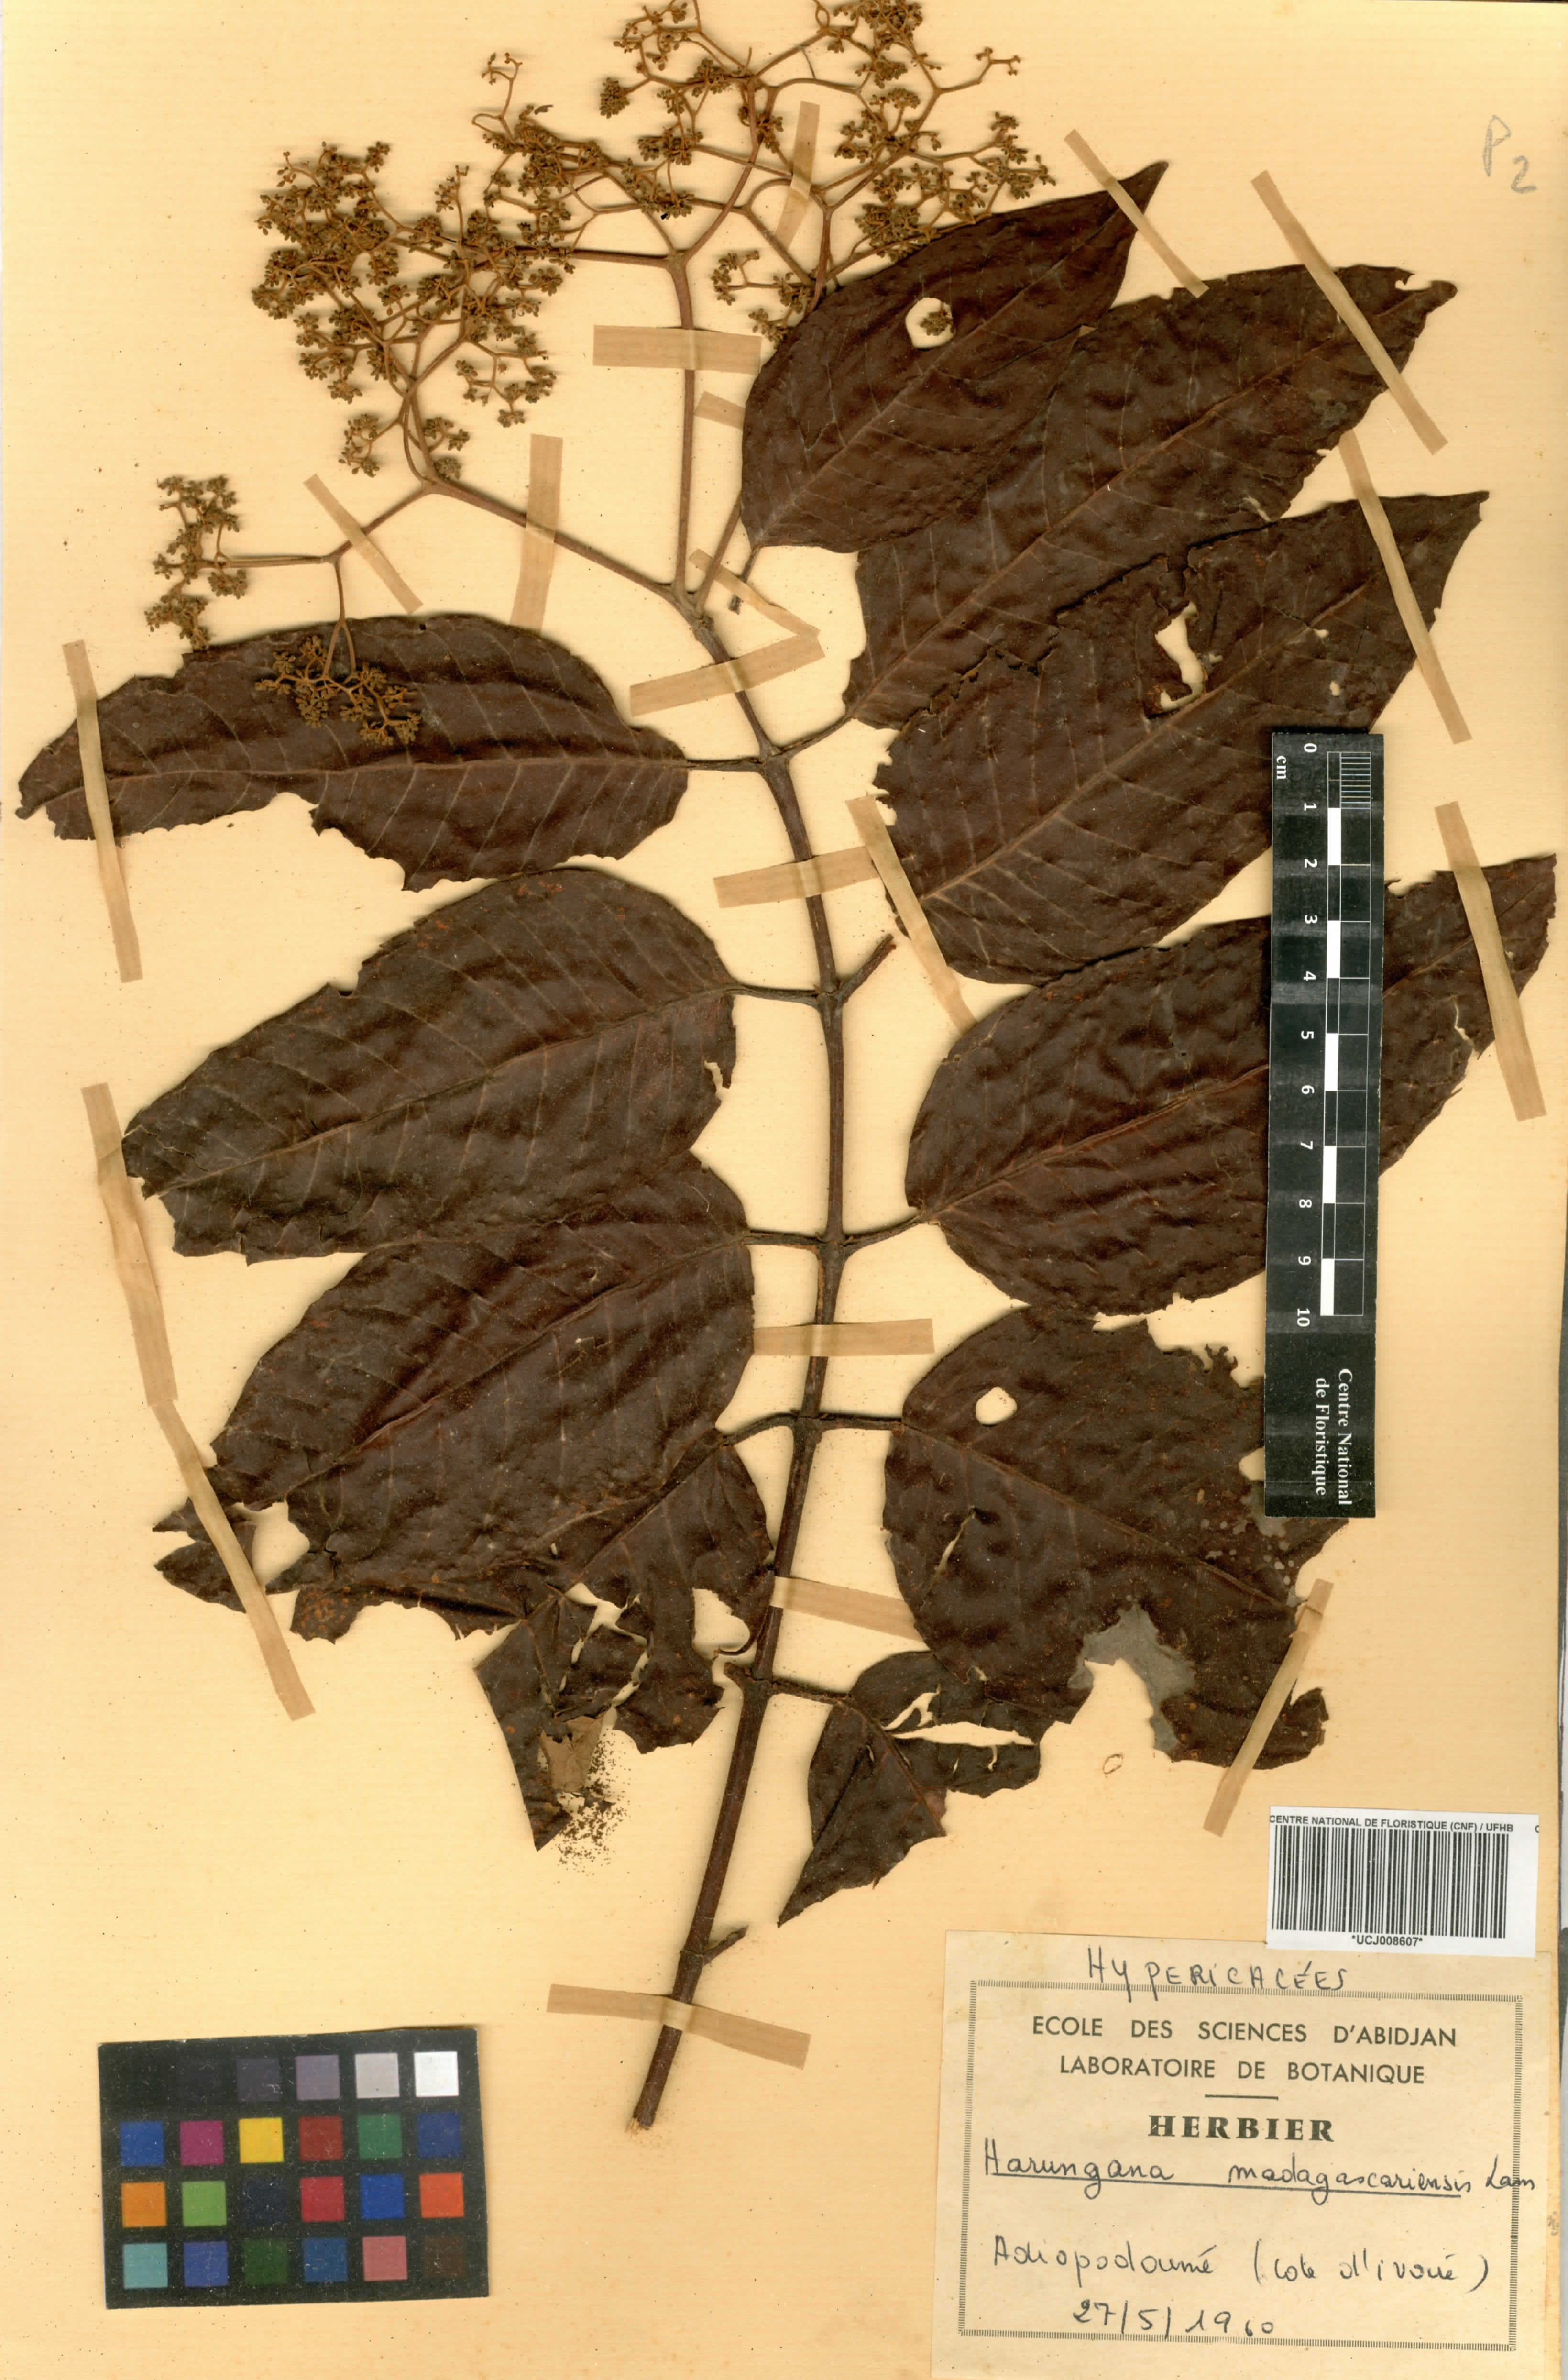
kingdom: Plantae
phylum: Tracheophyta
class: Magnoliopsida
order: Malpighiales
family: Hypericaceae
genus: Harungana
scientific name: Harungana madagascariensis
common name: Orange milktree
